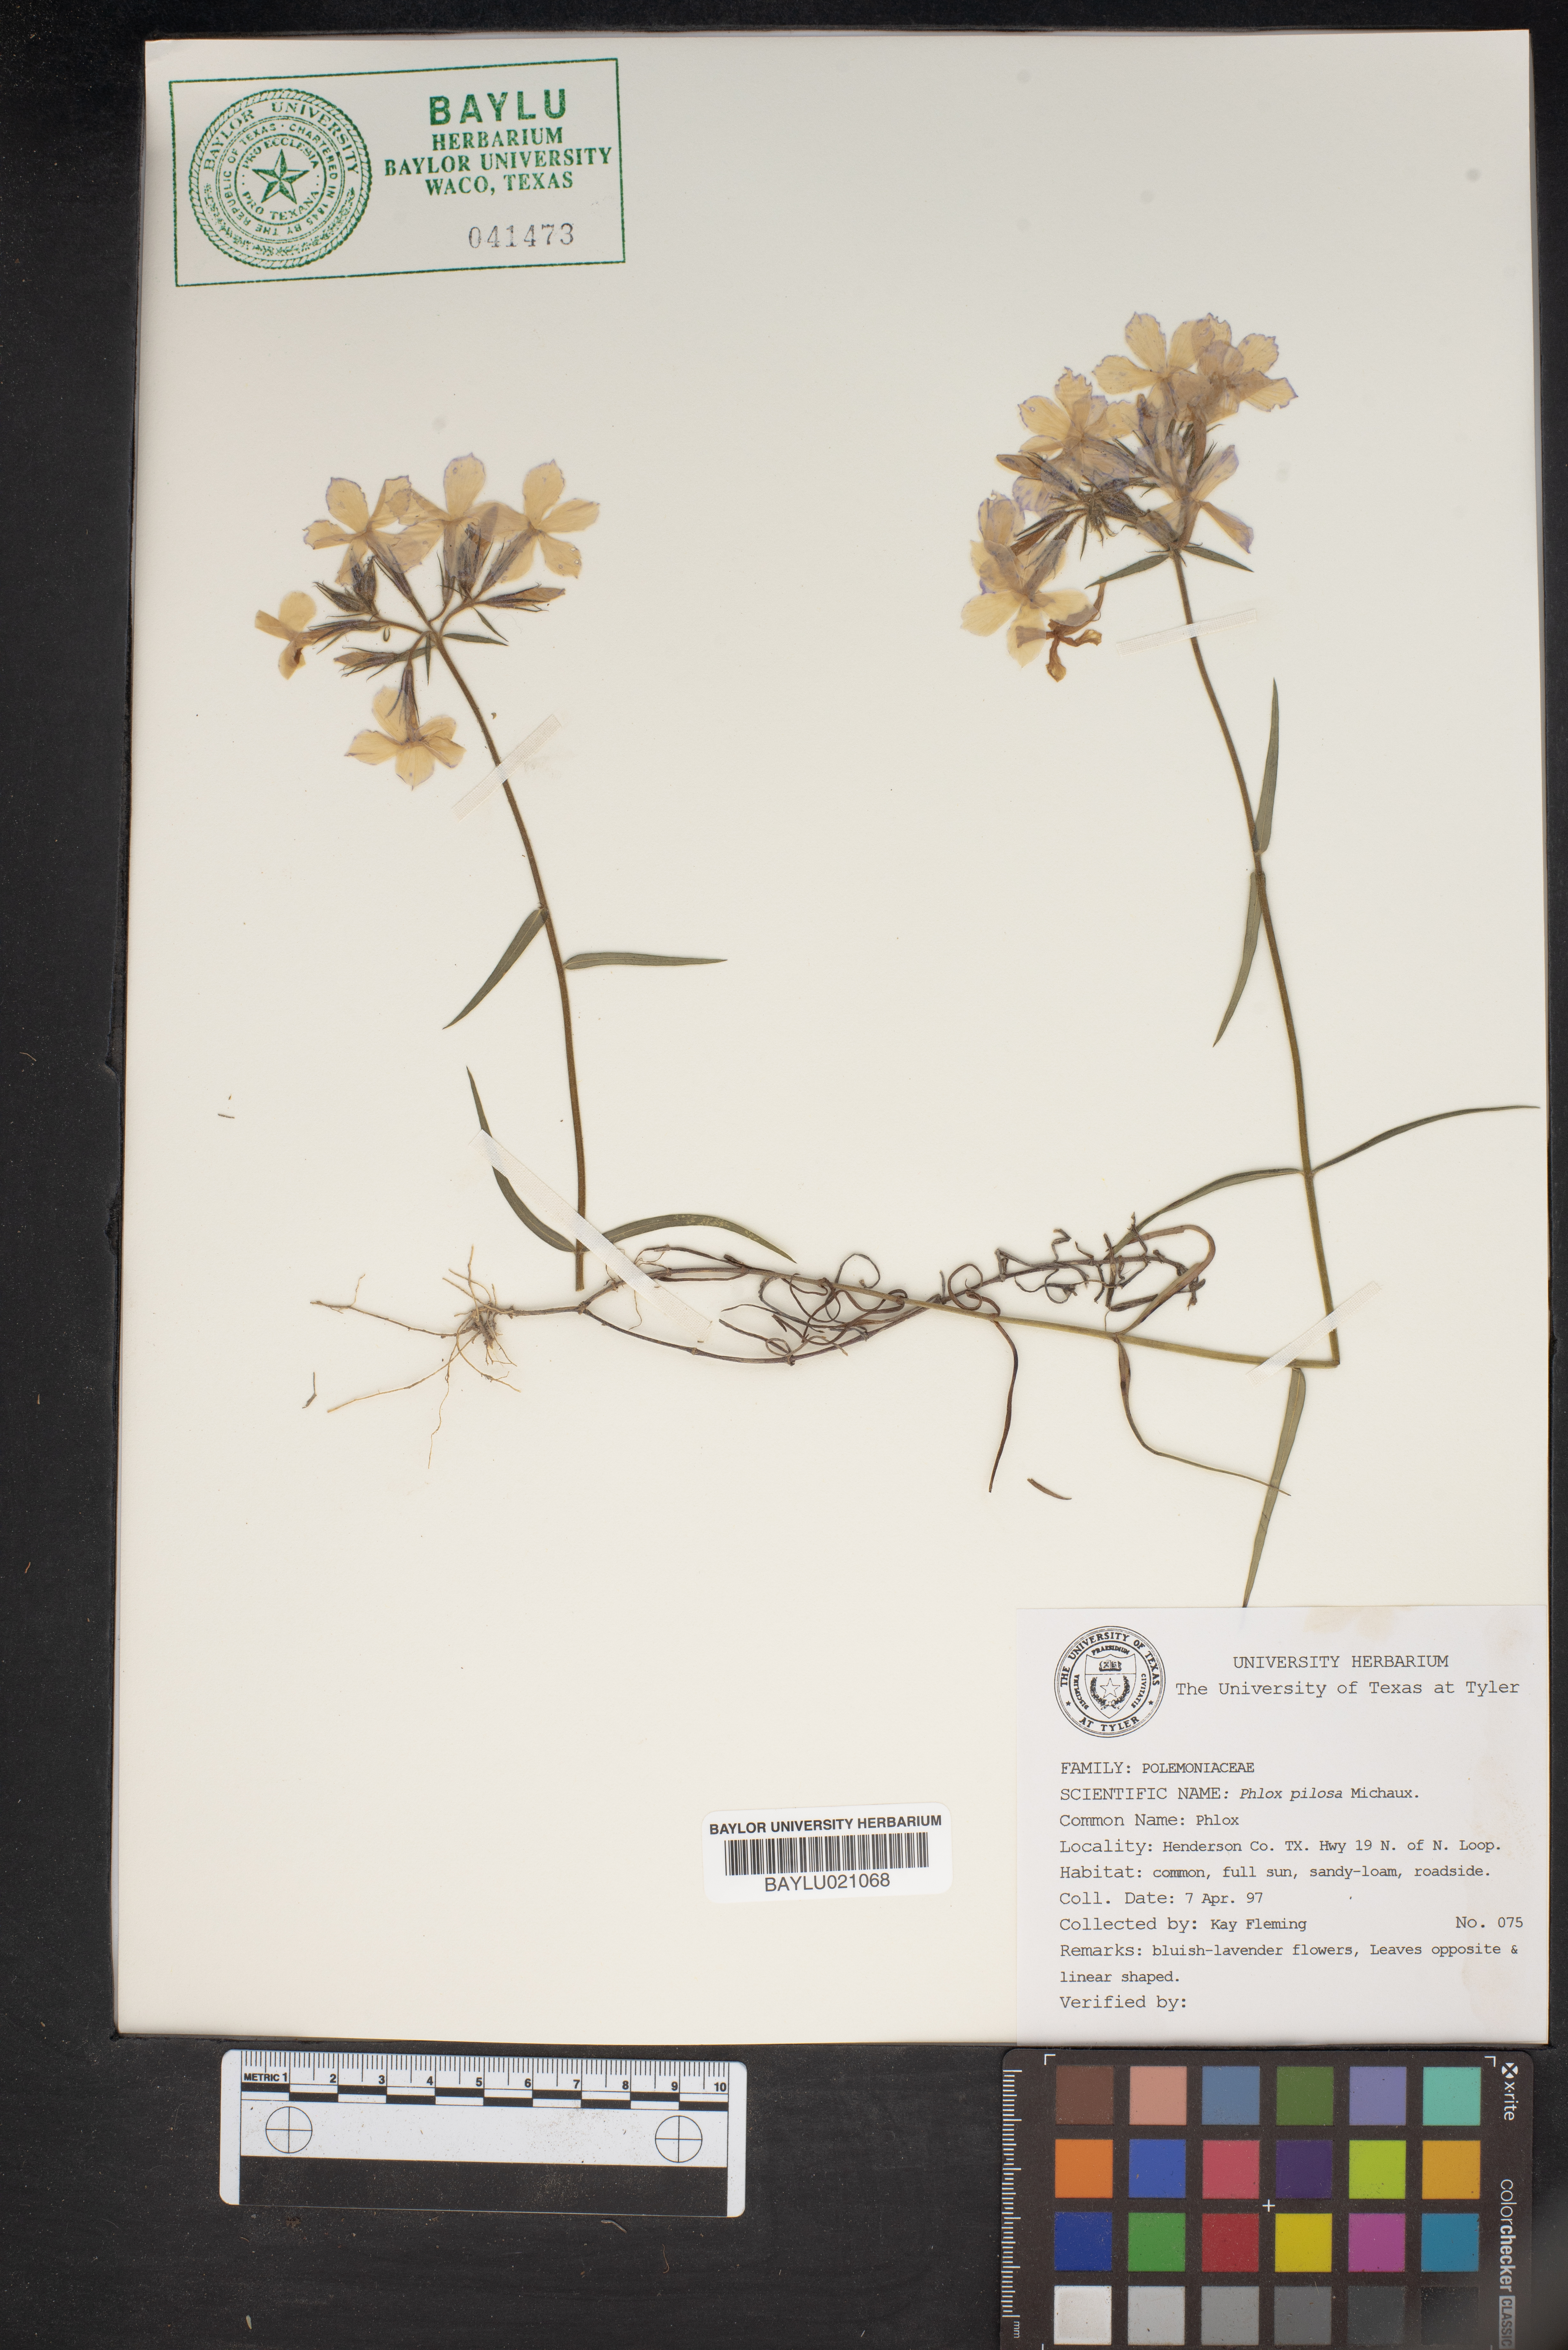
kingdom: Plantae
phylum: Tracheophyta
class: Magnoliopsida
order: Ericales
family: Polemoniaceae
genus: Phlox
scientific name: Phlox pilosa
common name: Prairie phlox
